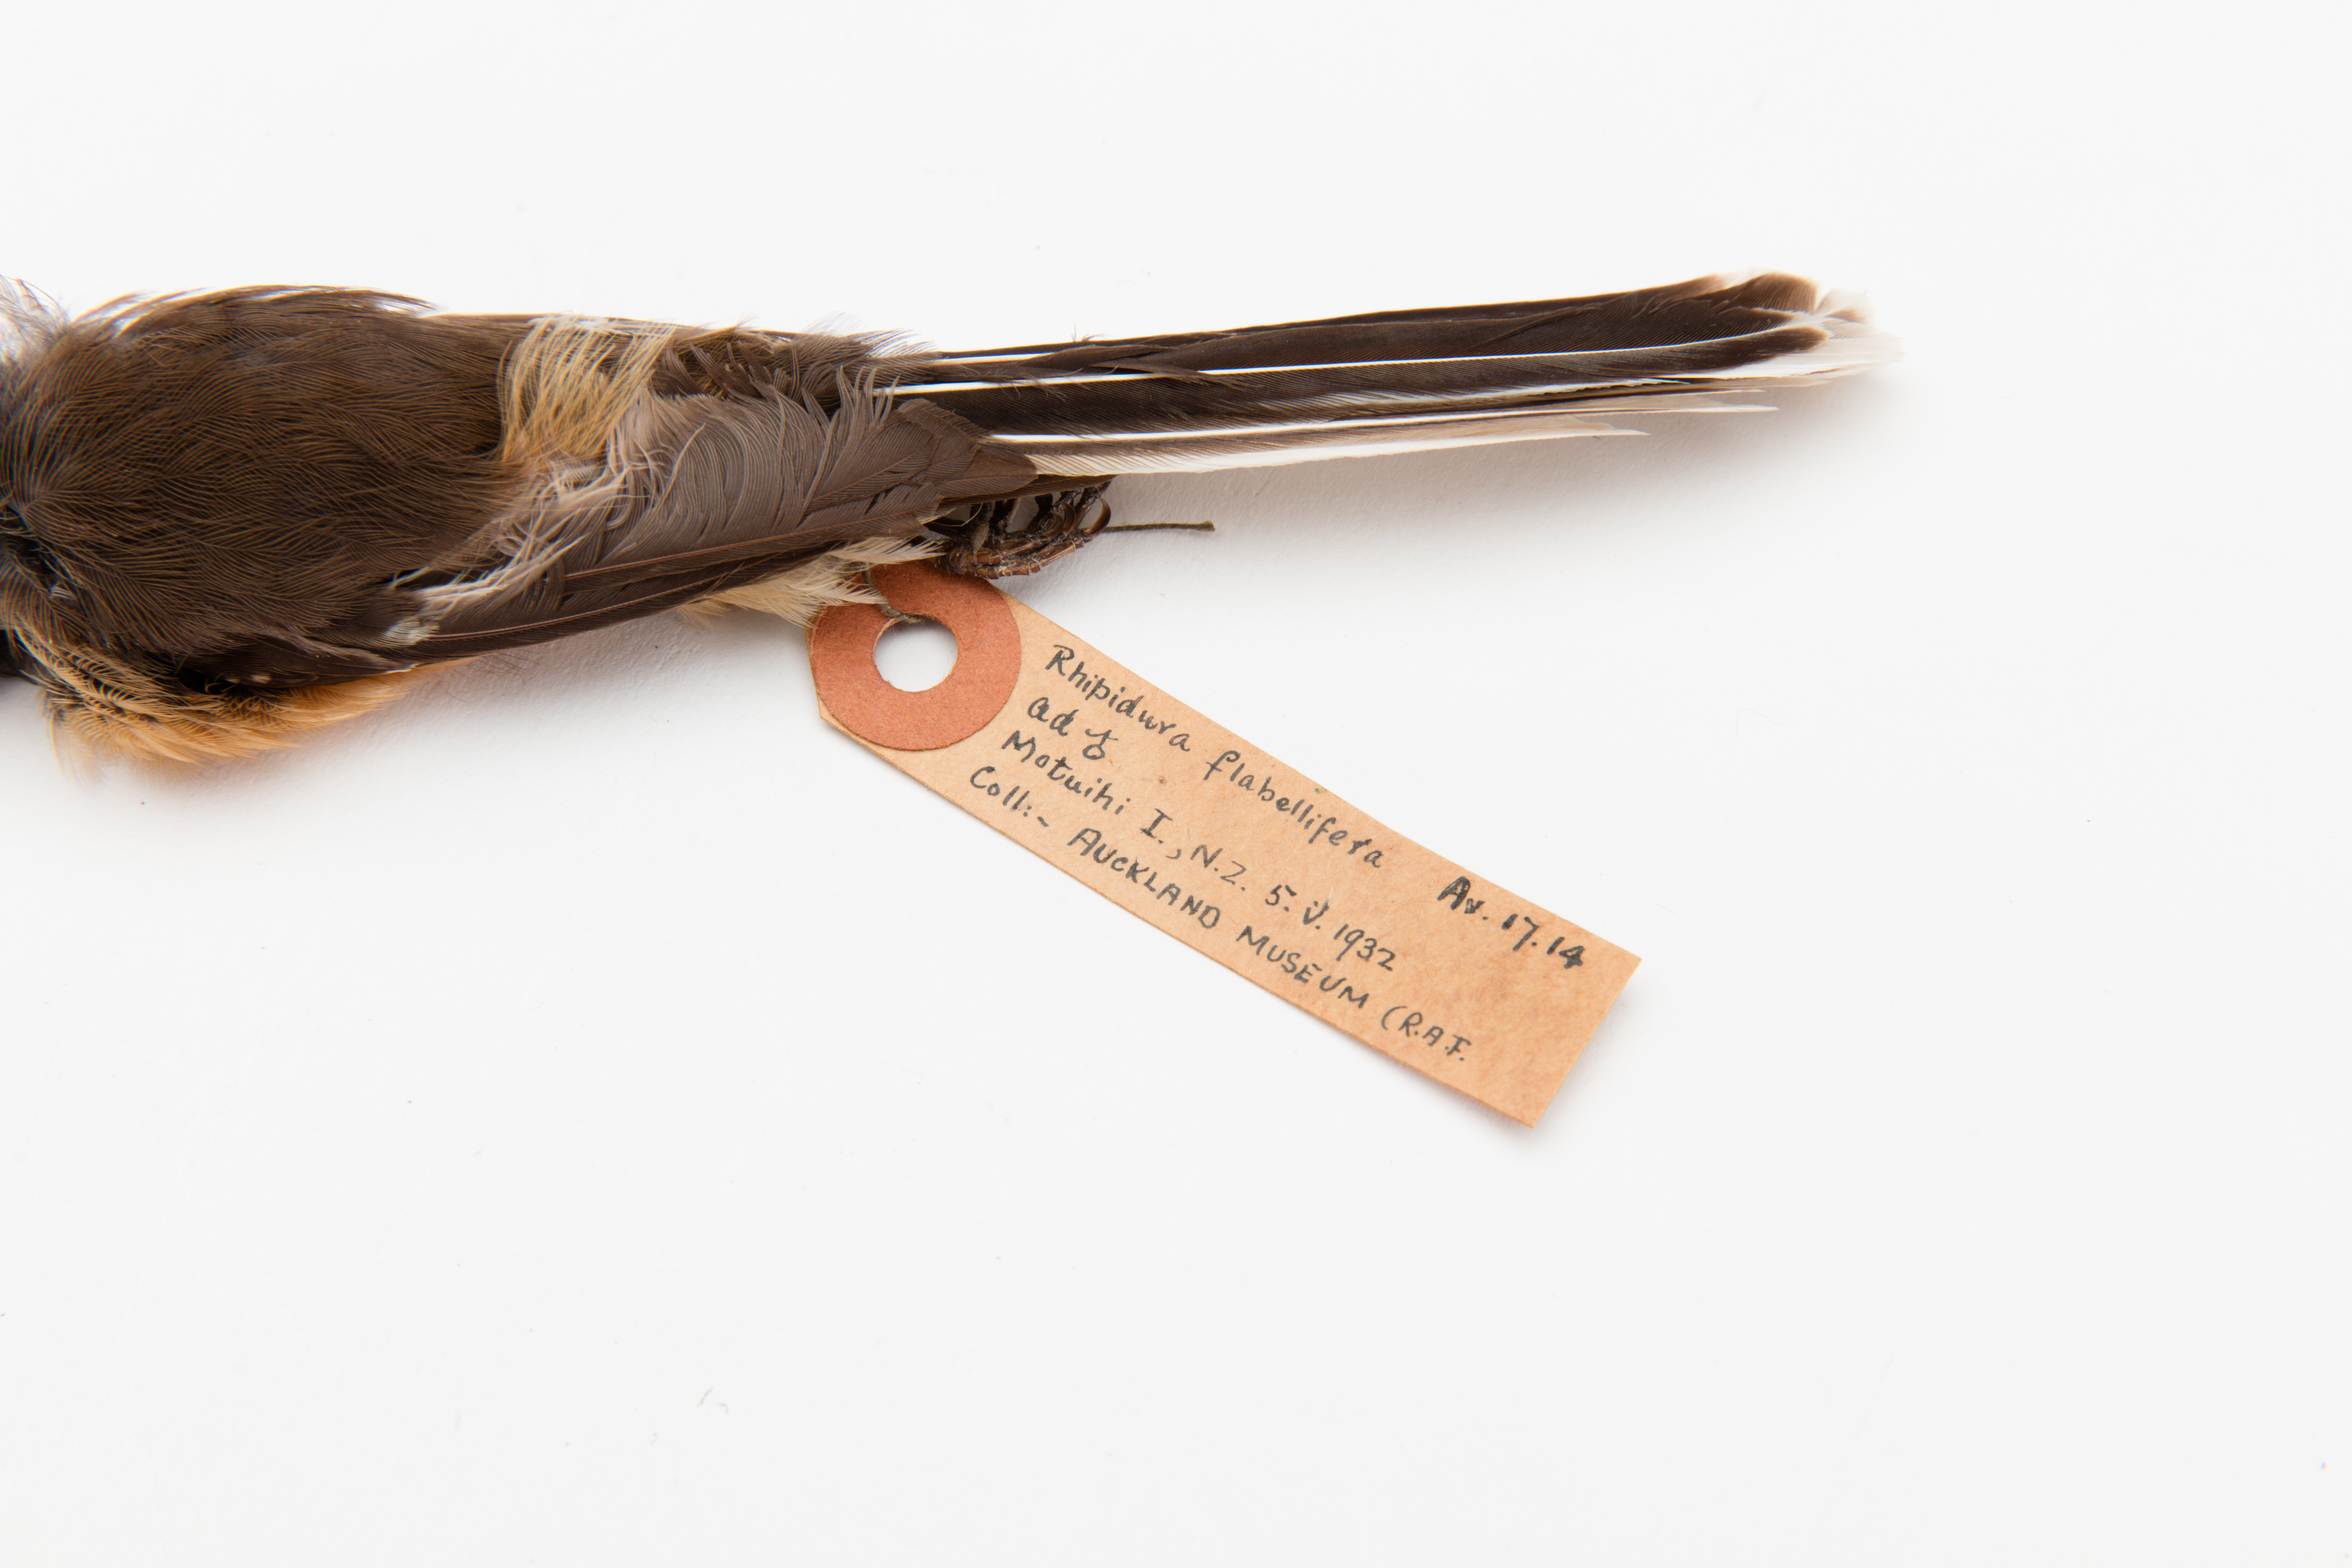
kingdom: Animalia
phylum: Chordata
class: Aves
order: Passeriformes
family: Rhipiduridae
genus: Rhipidura
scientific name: Rhipidura fuliginosa
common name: New zealand fantail
